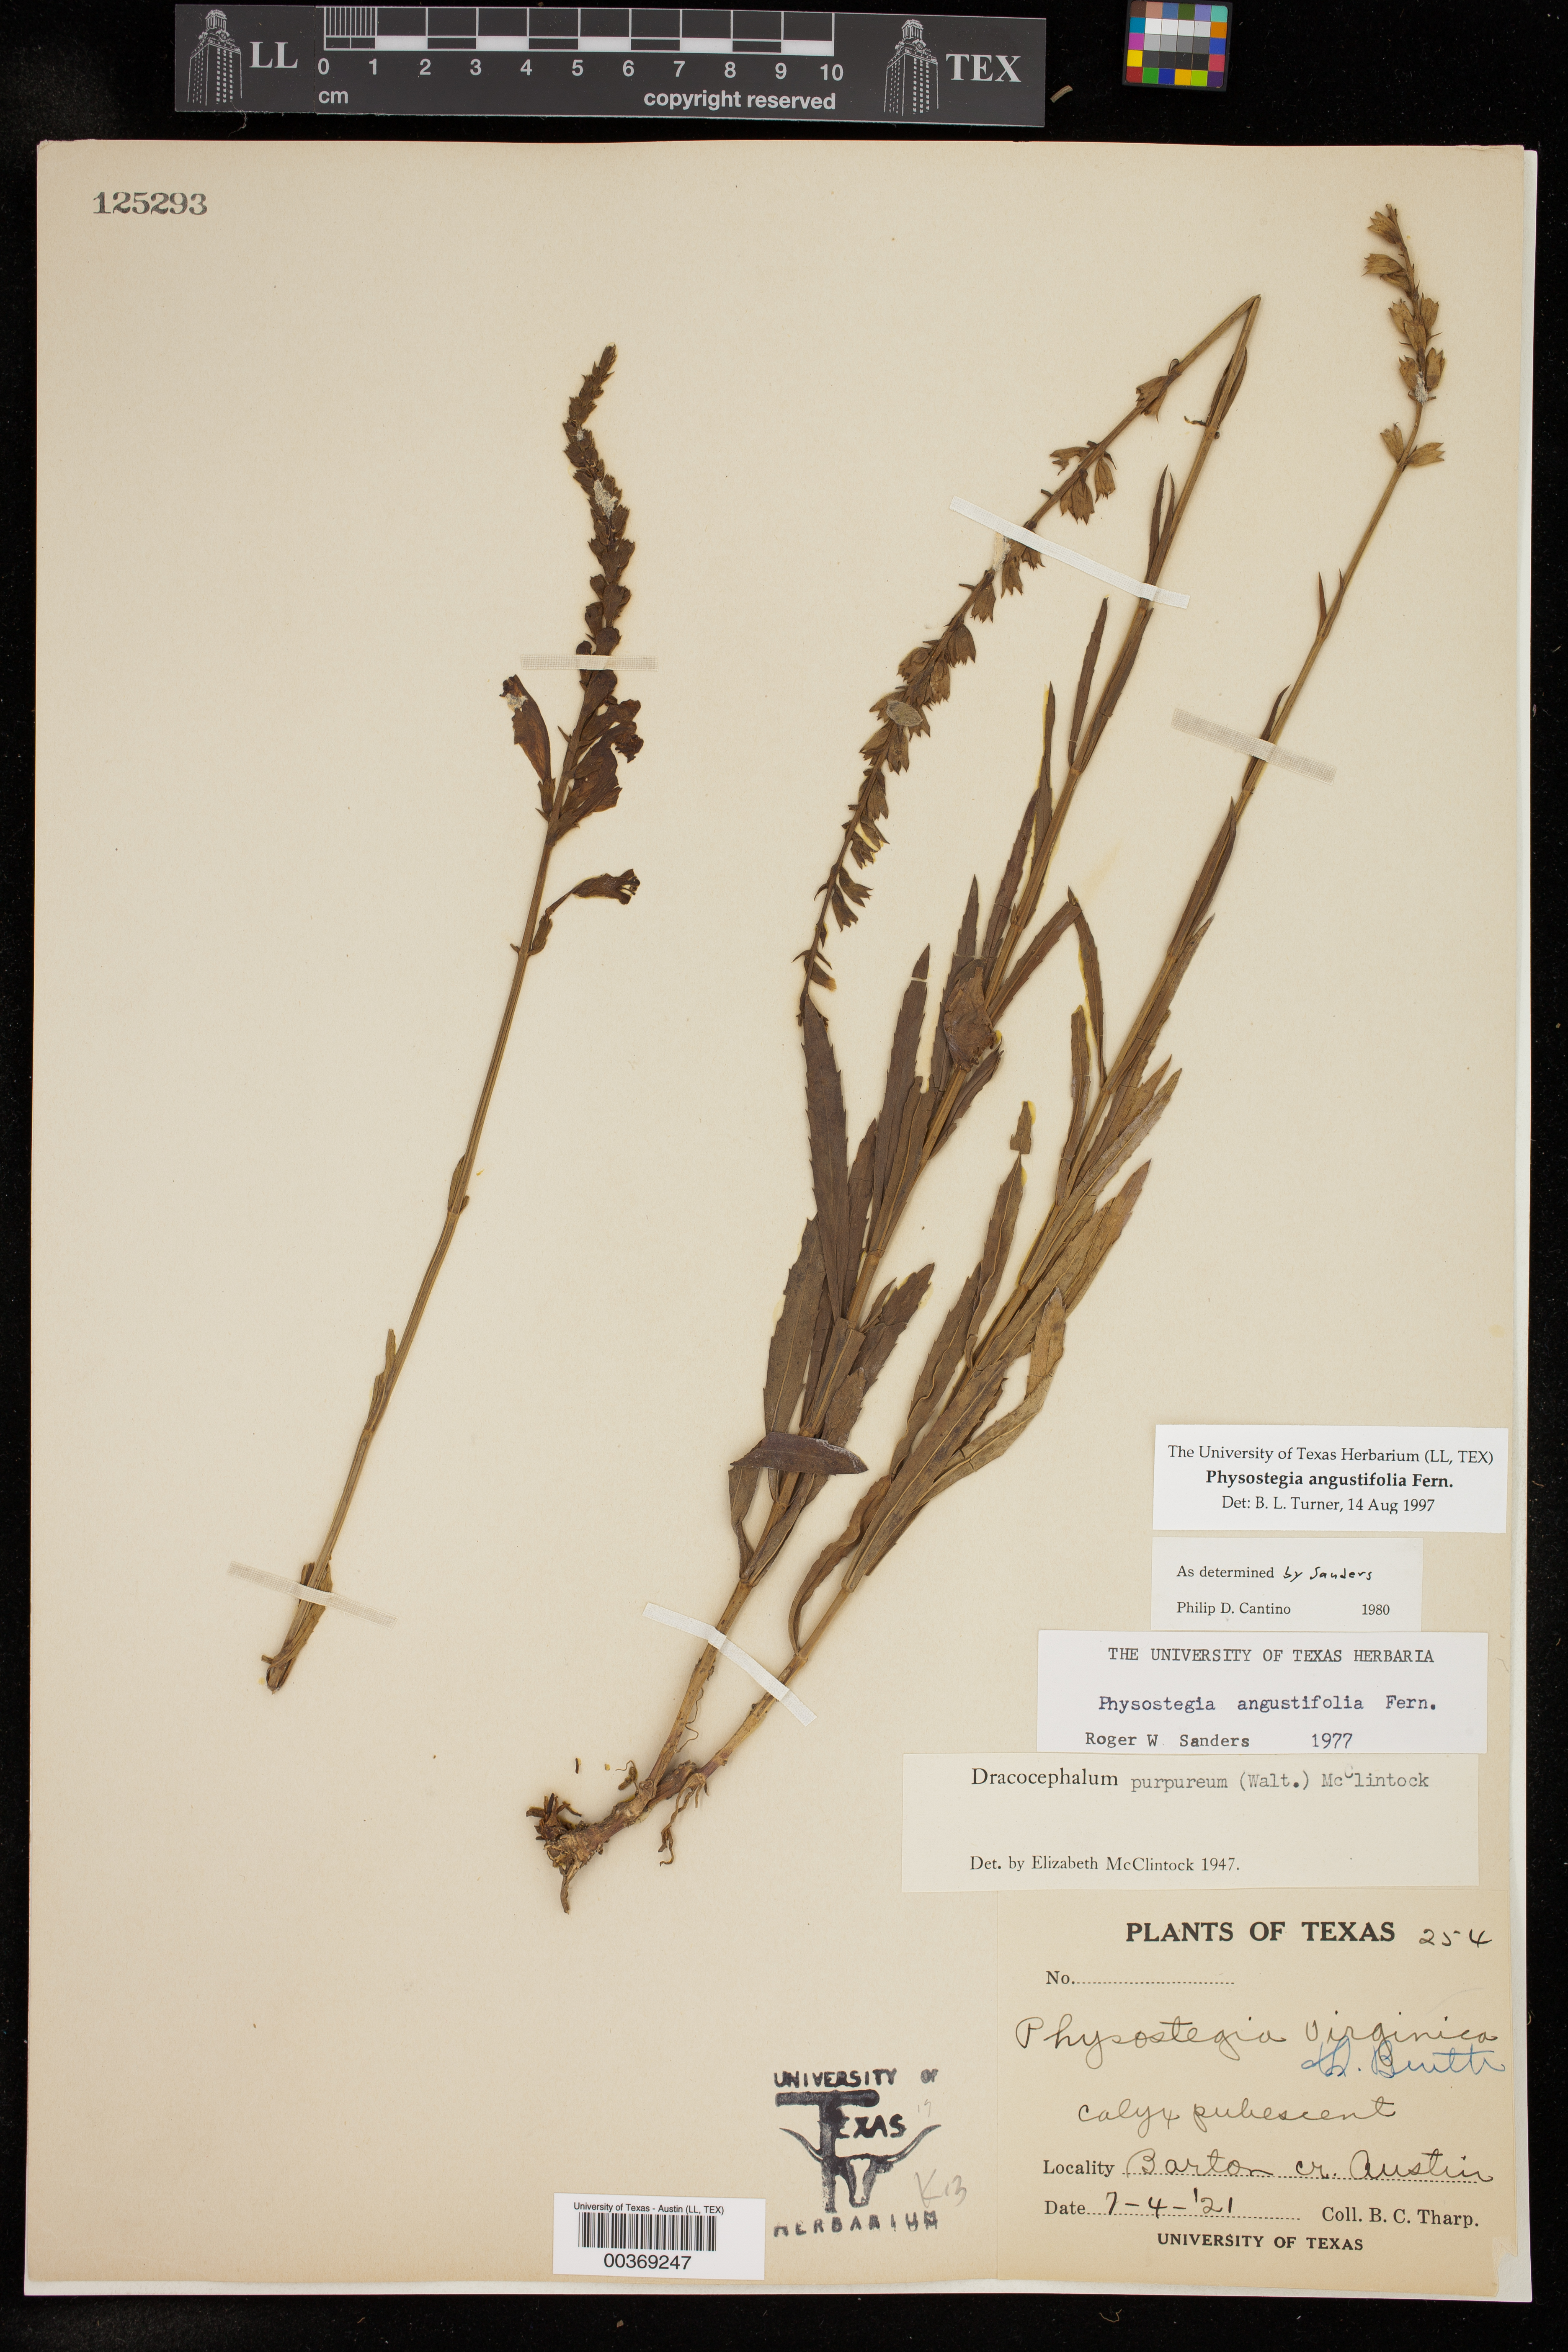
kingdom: Plantae
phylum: Tracheophyta
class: Magnoliopsida
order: Lamiales
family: Lamiaceae
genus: Physostegia
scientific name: Physostegia angustifolia
